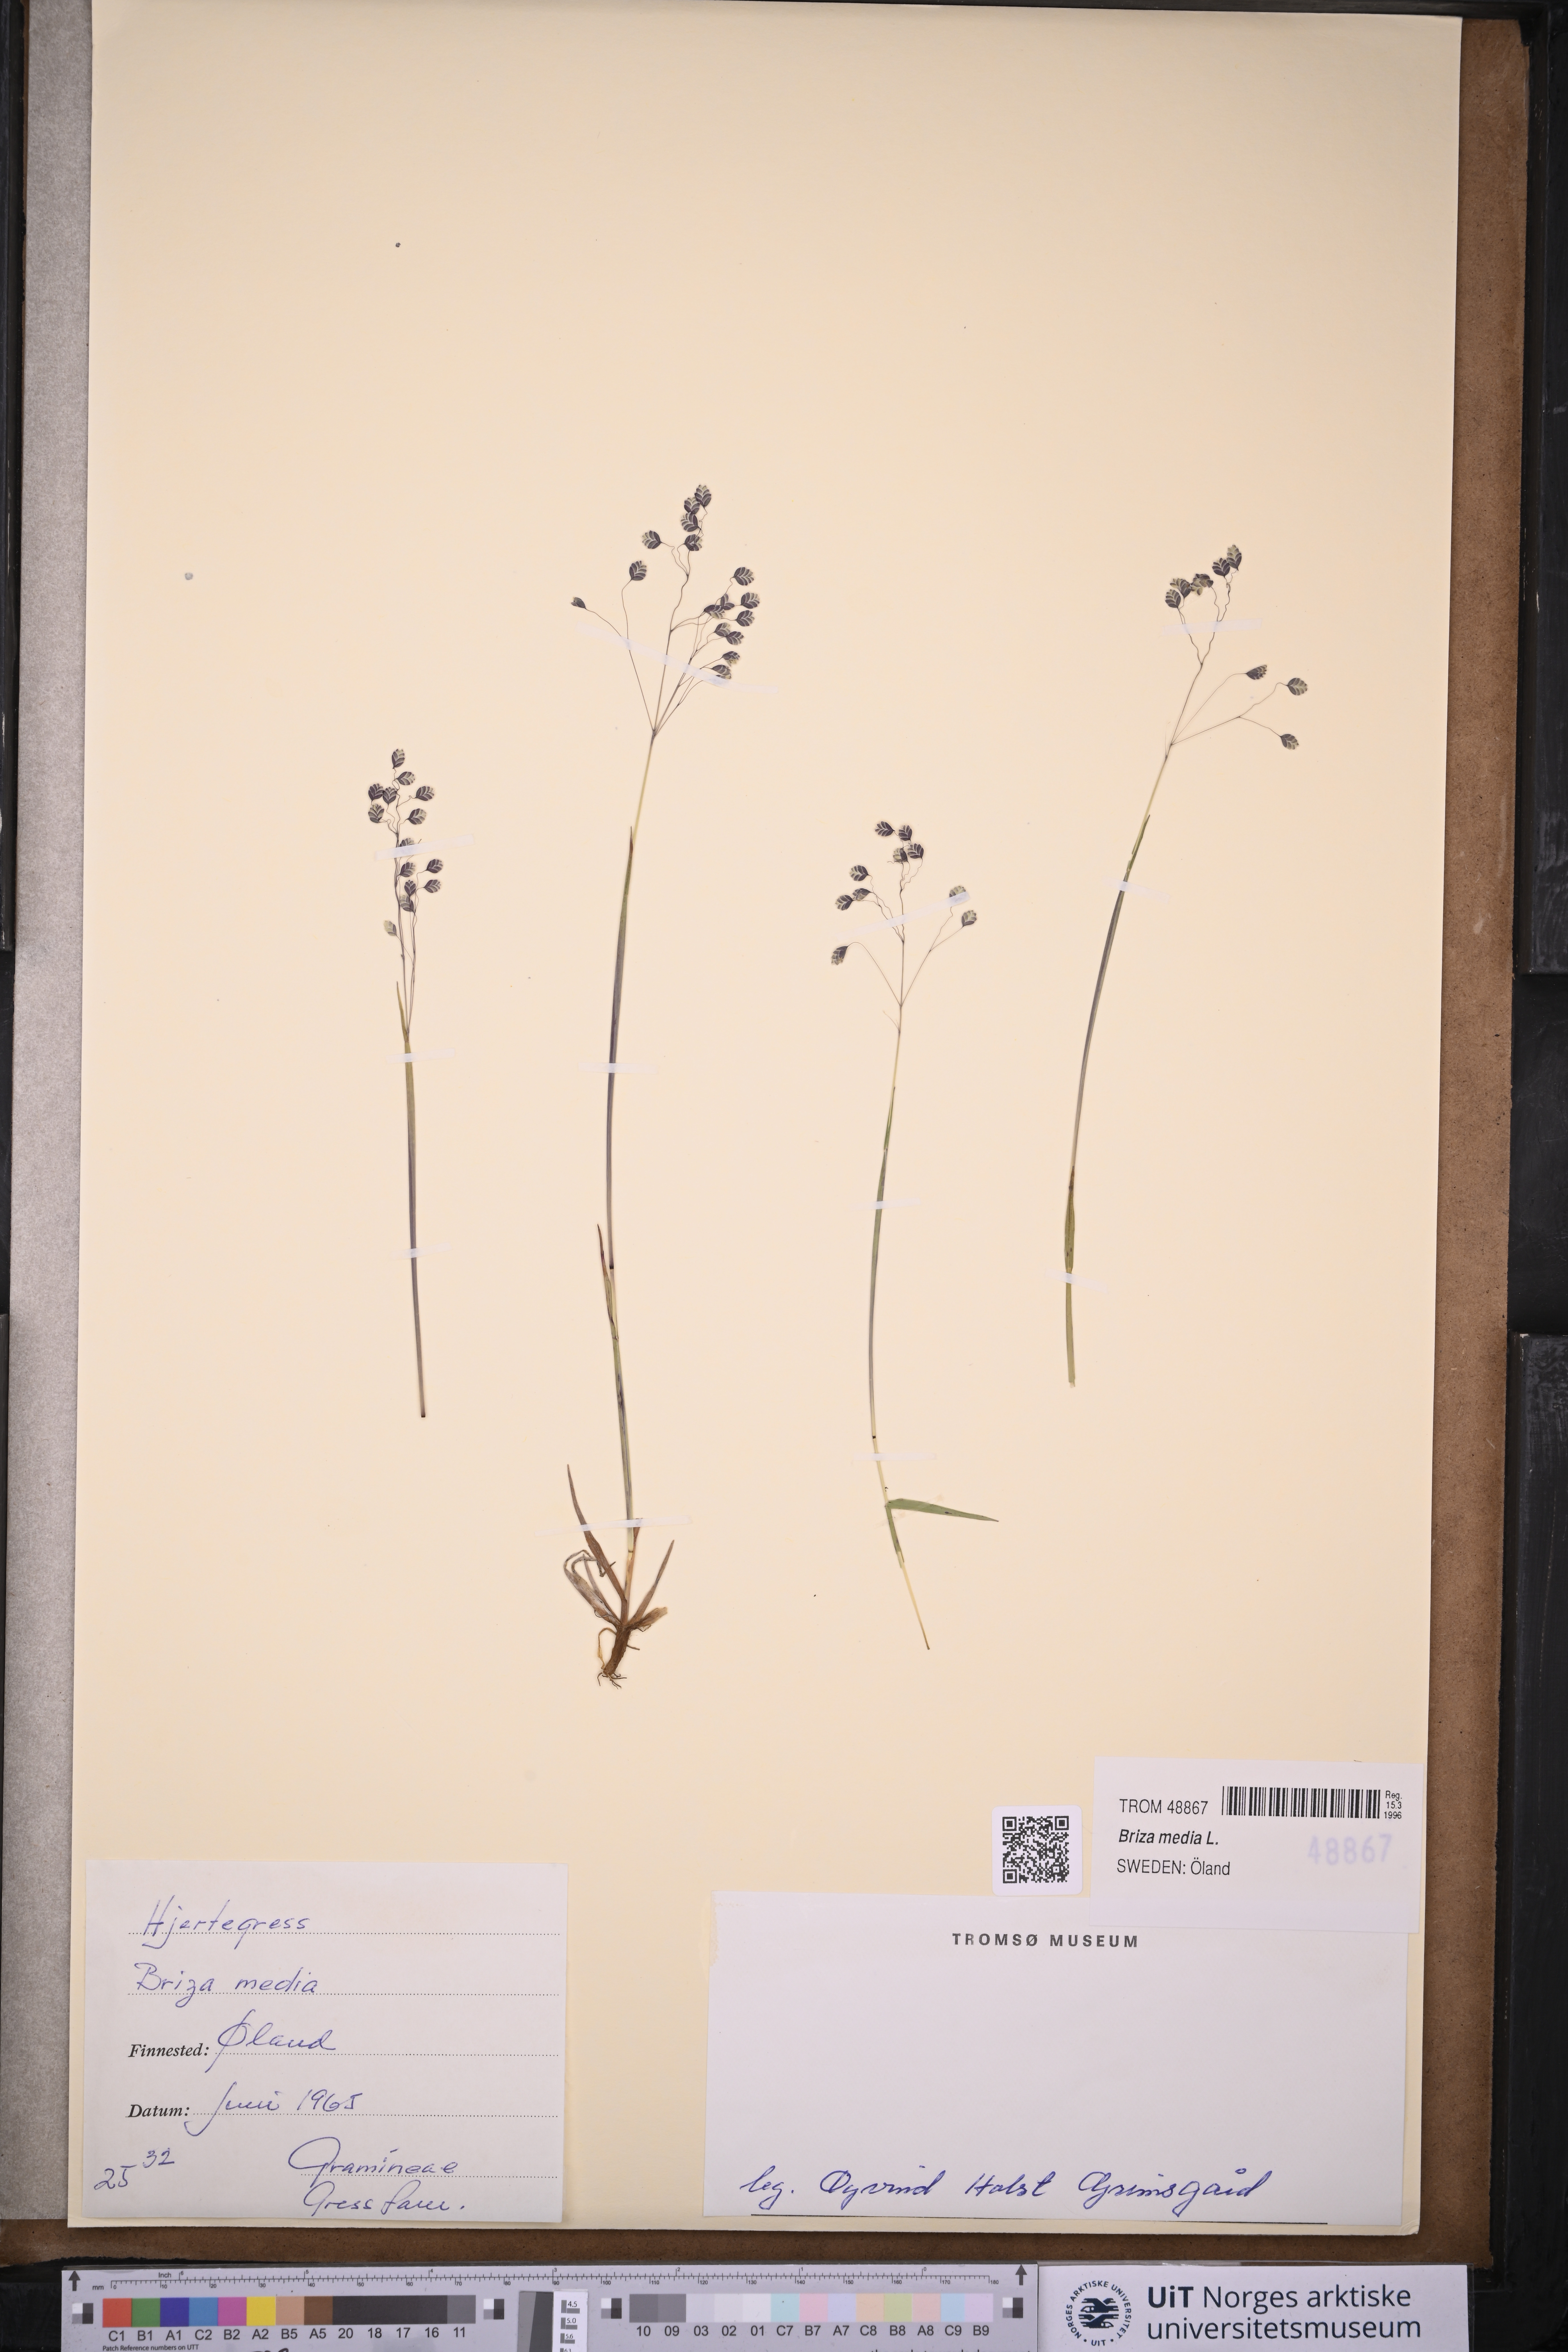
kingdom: Plantae
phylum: Tracheophyta
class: Liliopsida
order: Poales
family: Poaceae
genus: Briza
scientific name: Briza media
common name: Quaking grass
